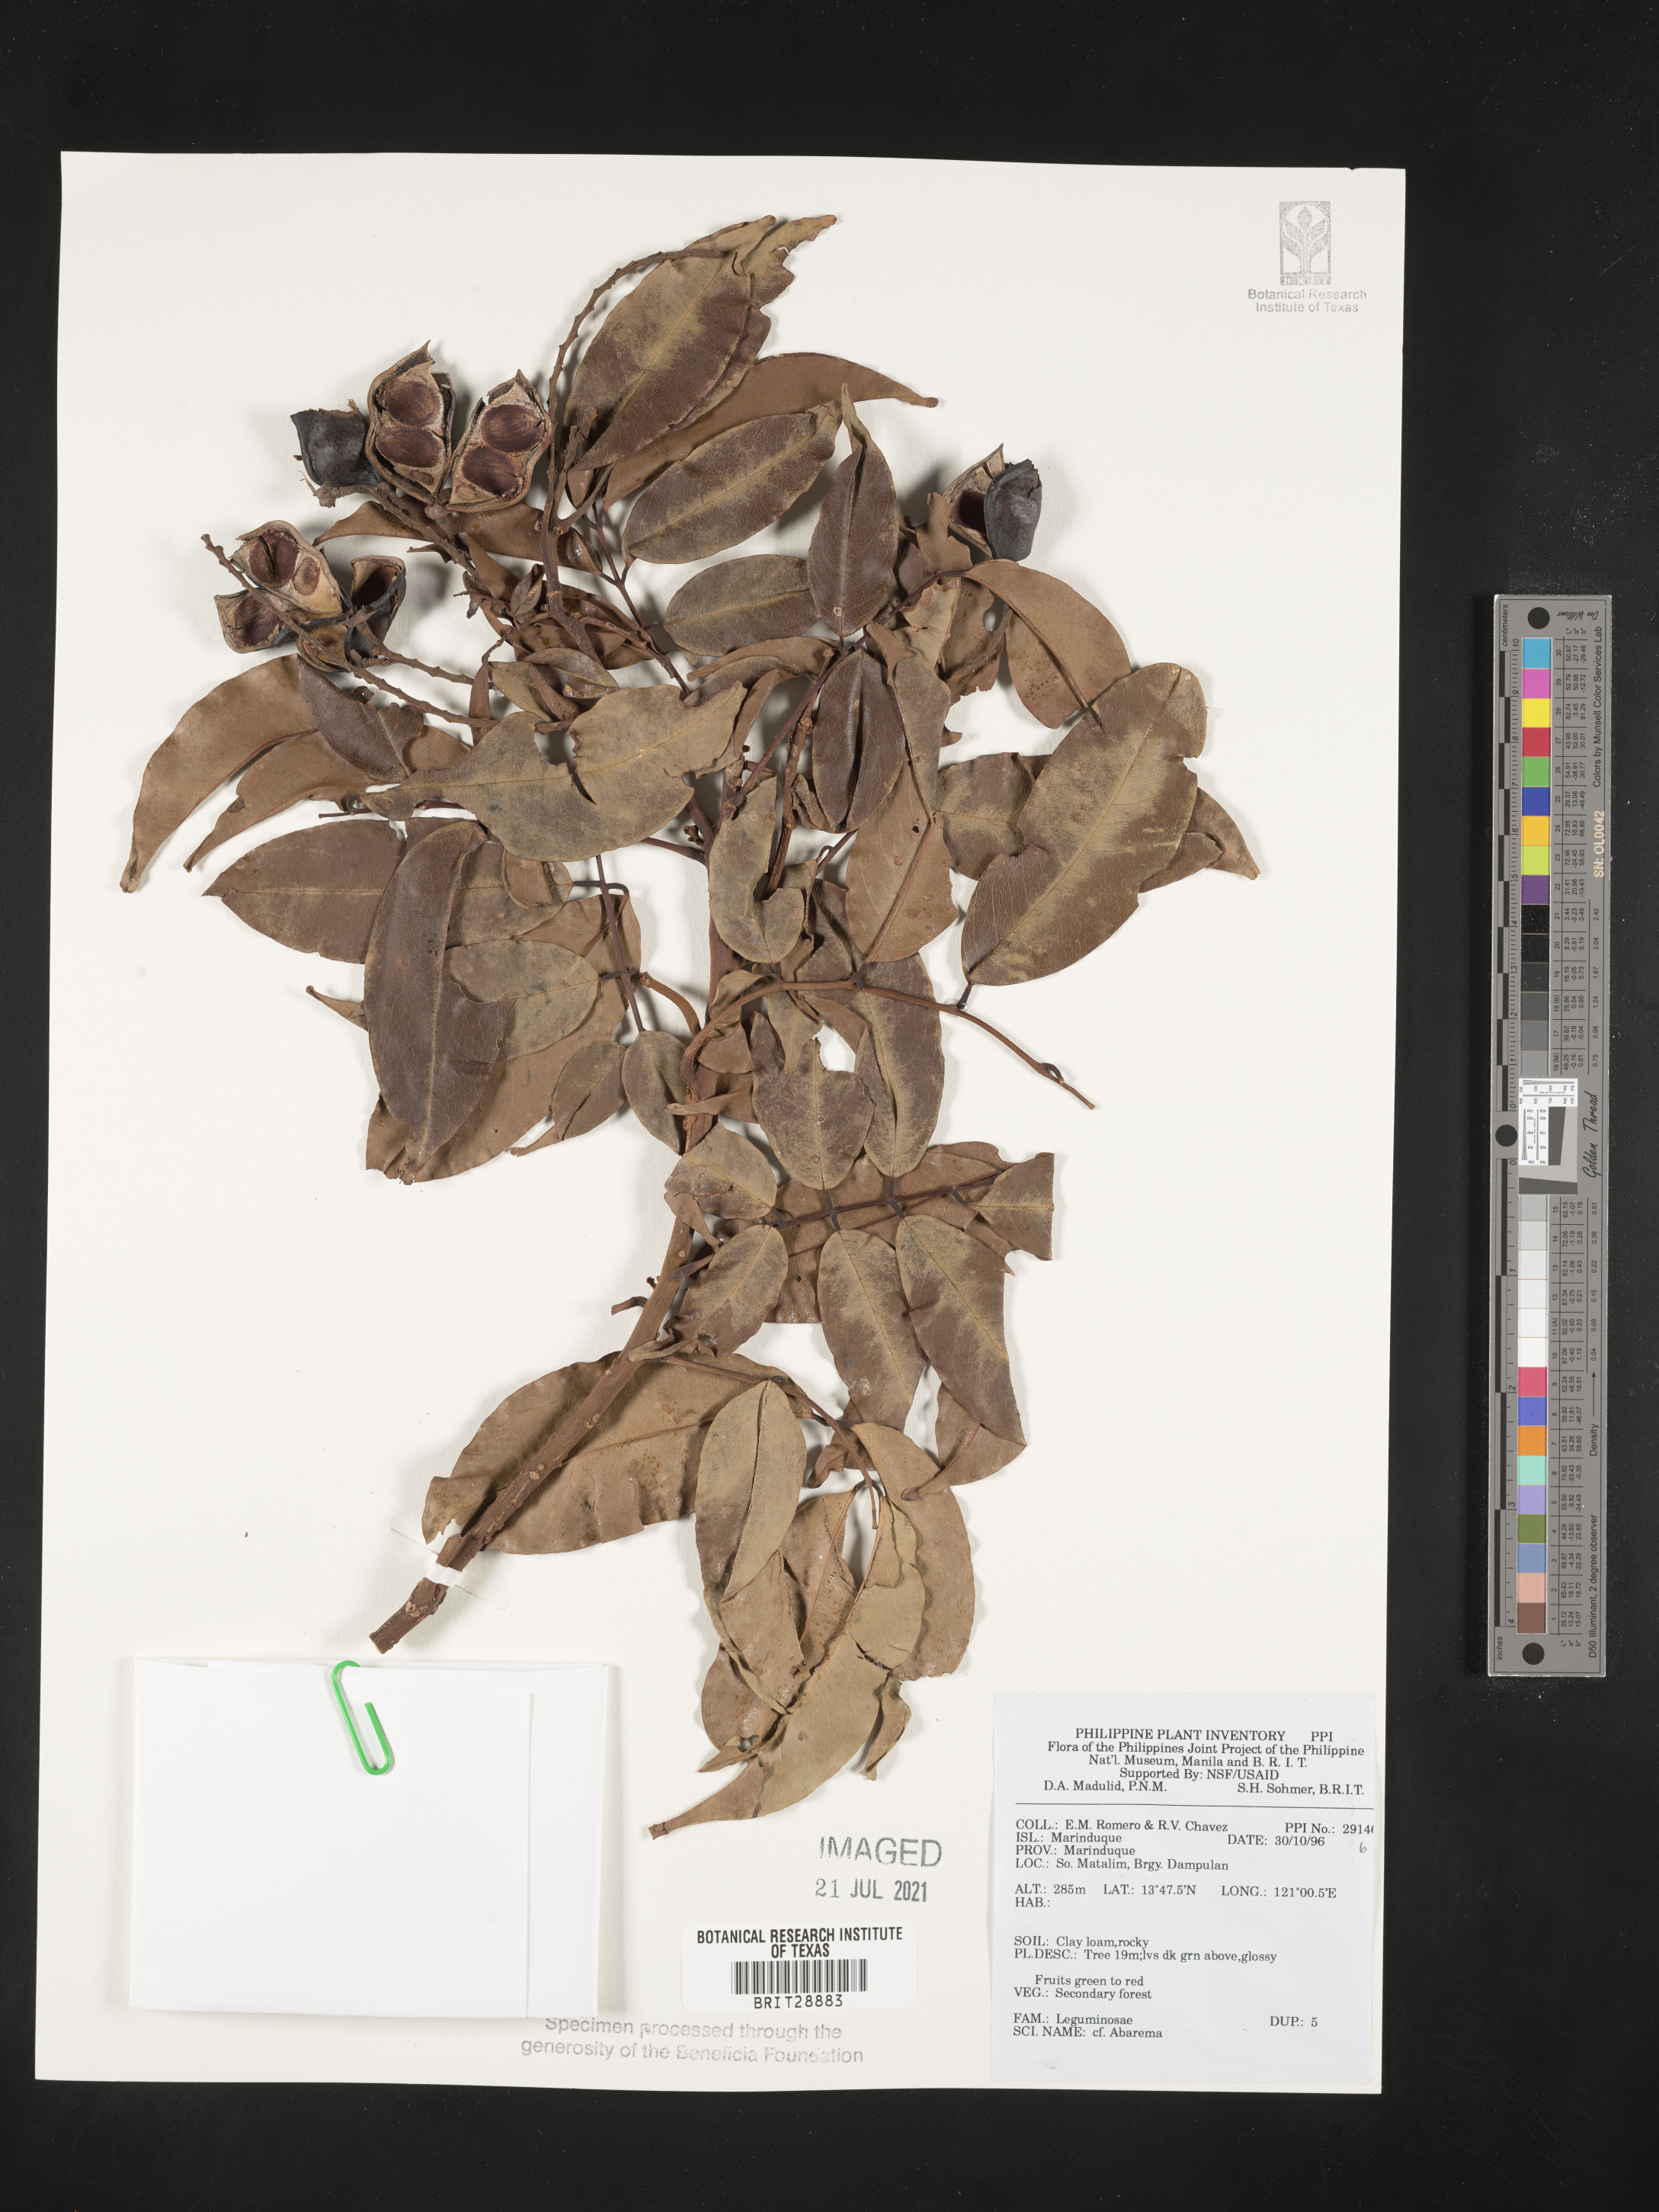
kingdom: Plantae
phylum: Tracheophyta
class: Magnoliopsida
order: Fabales
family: Fabaceae
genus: Abarema
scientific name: Abarema
